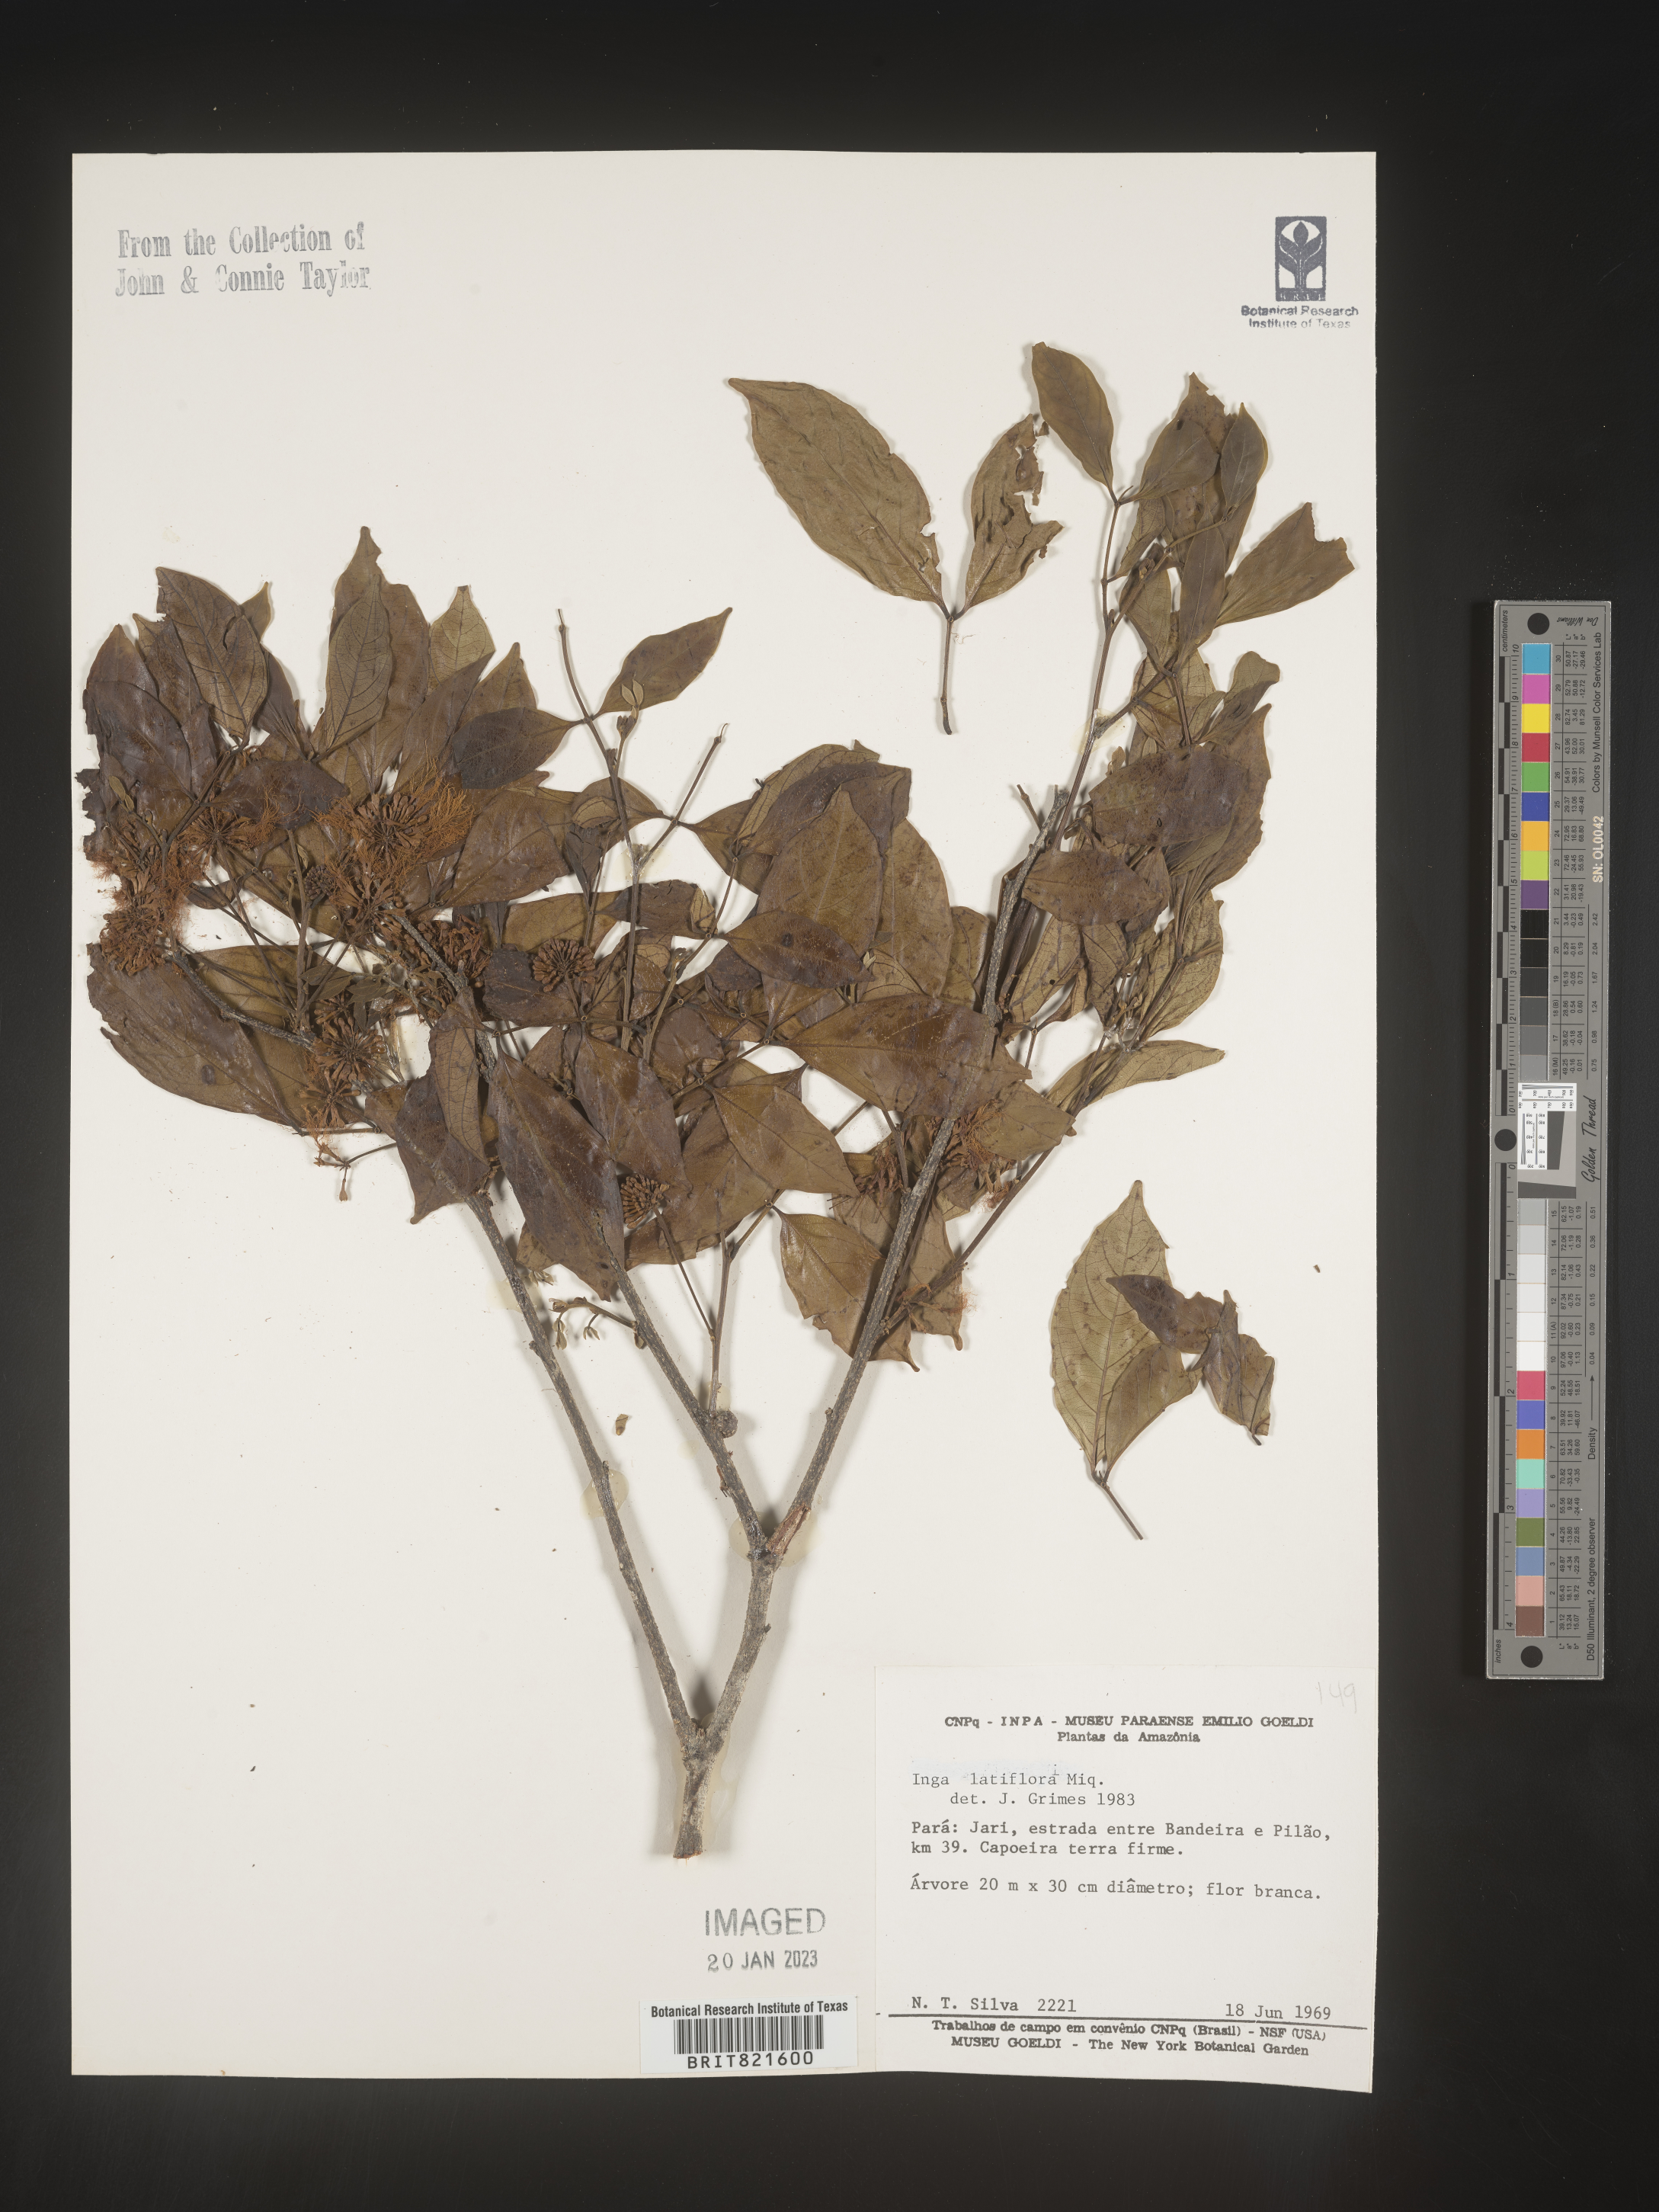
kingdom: Plantae
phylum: Tracheophyta
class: Magnoliopsida
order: Fabales
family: Fabaceae
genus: Inga
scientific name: Inga
